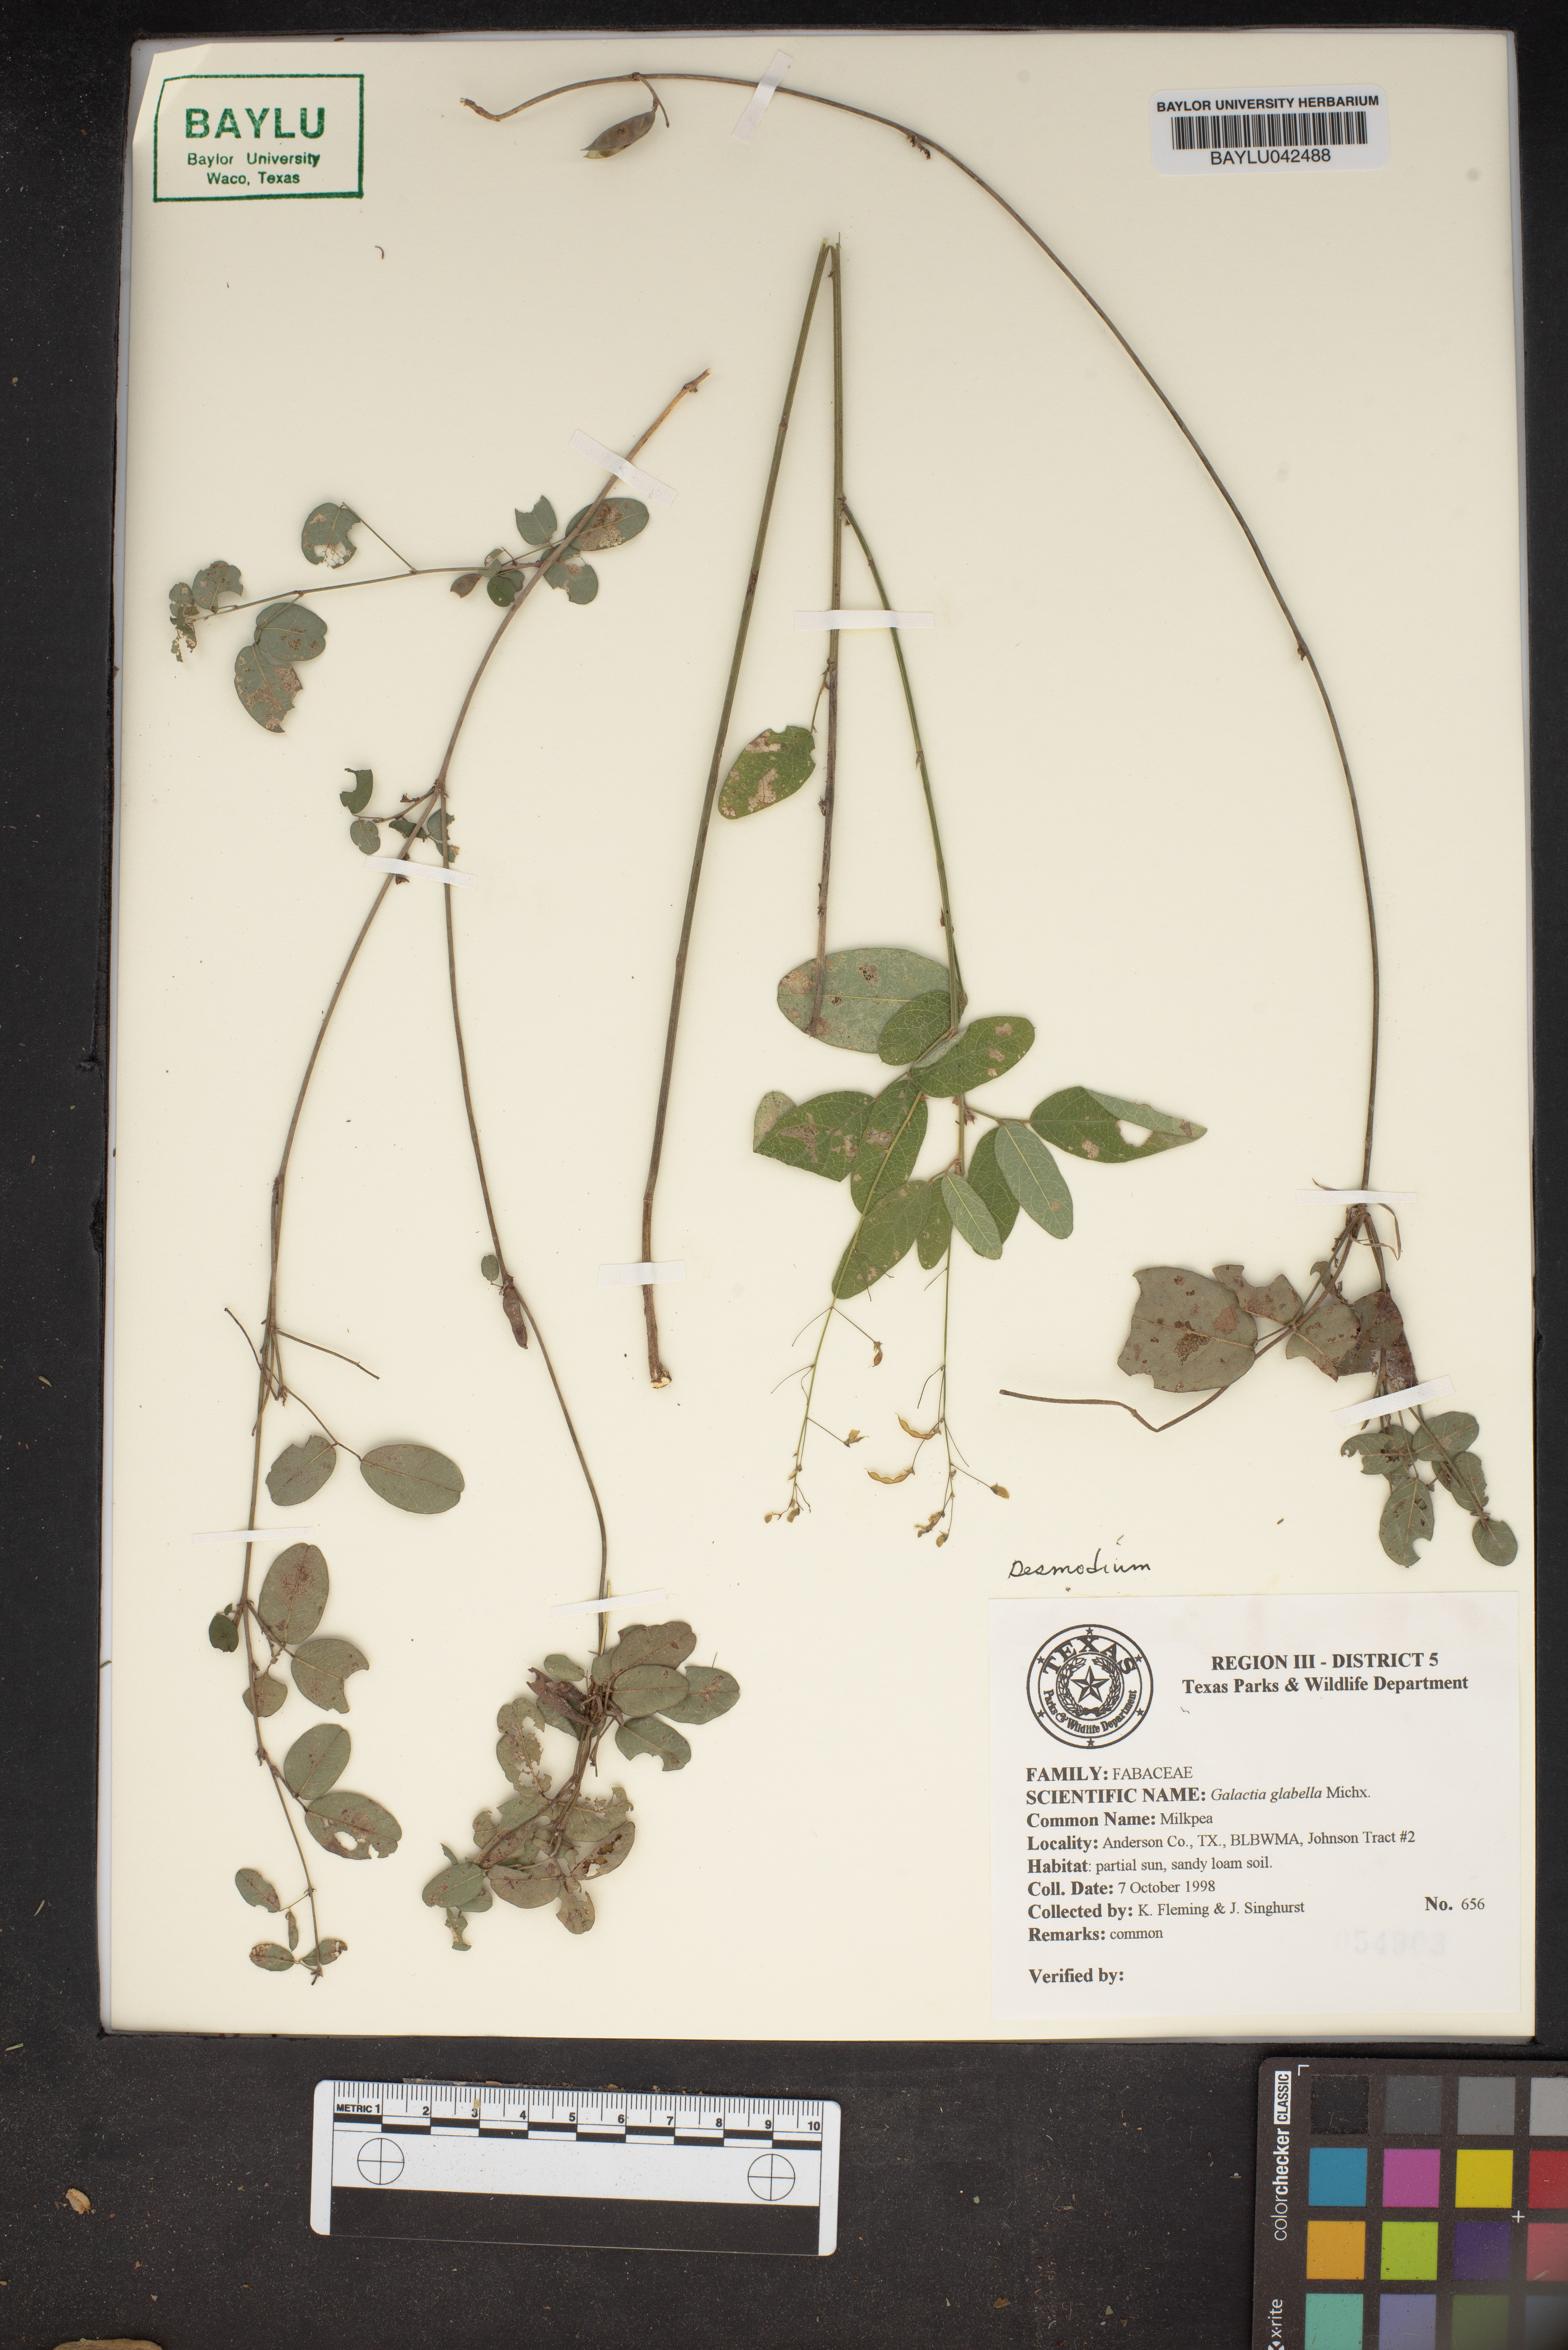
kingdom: Plantae
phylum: Tracheophyta
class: Magnoliopsida
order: Fabales
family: Fabaceae
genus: Galactia
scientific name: Galactia regularis
